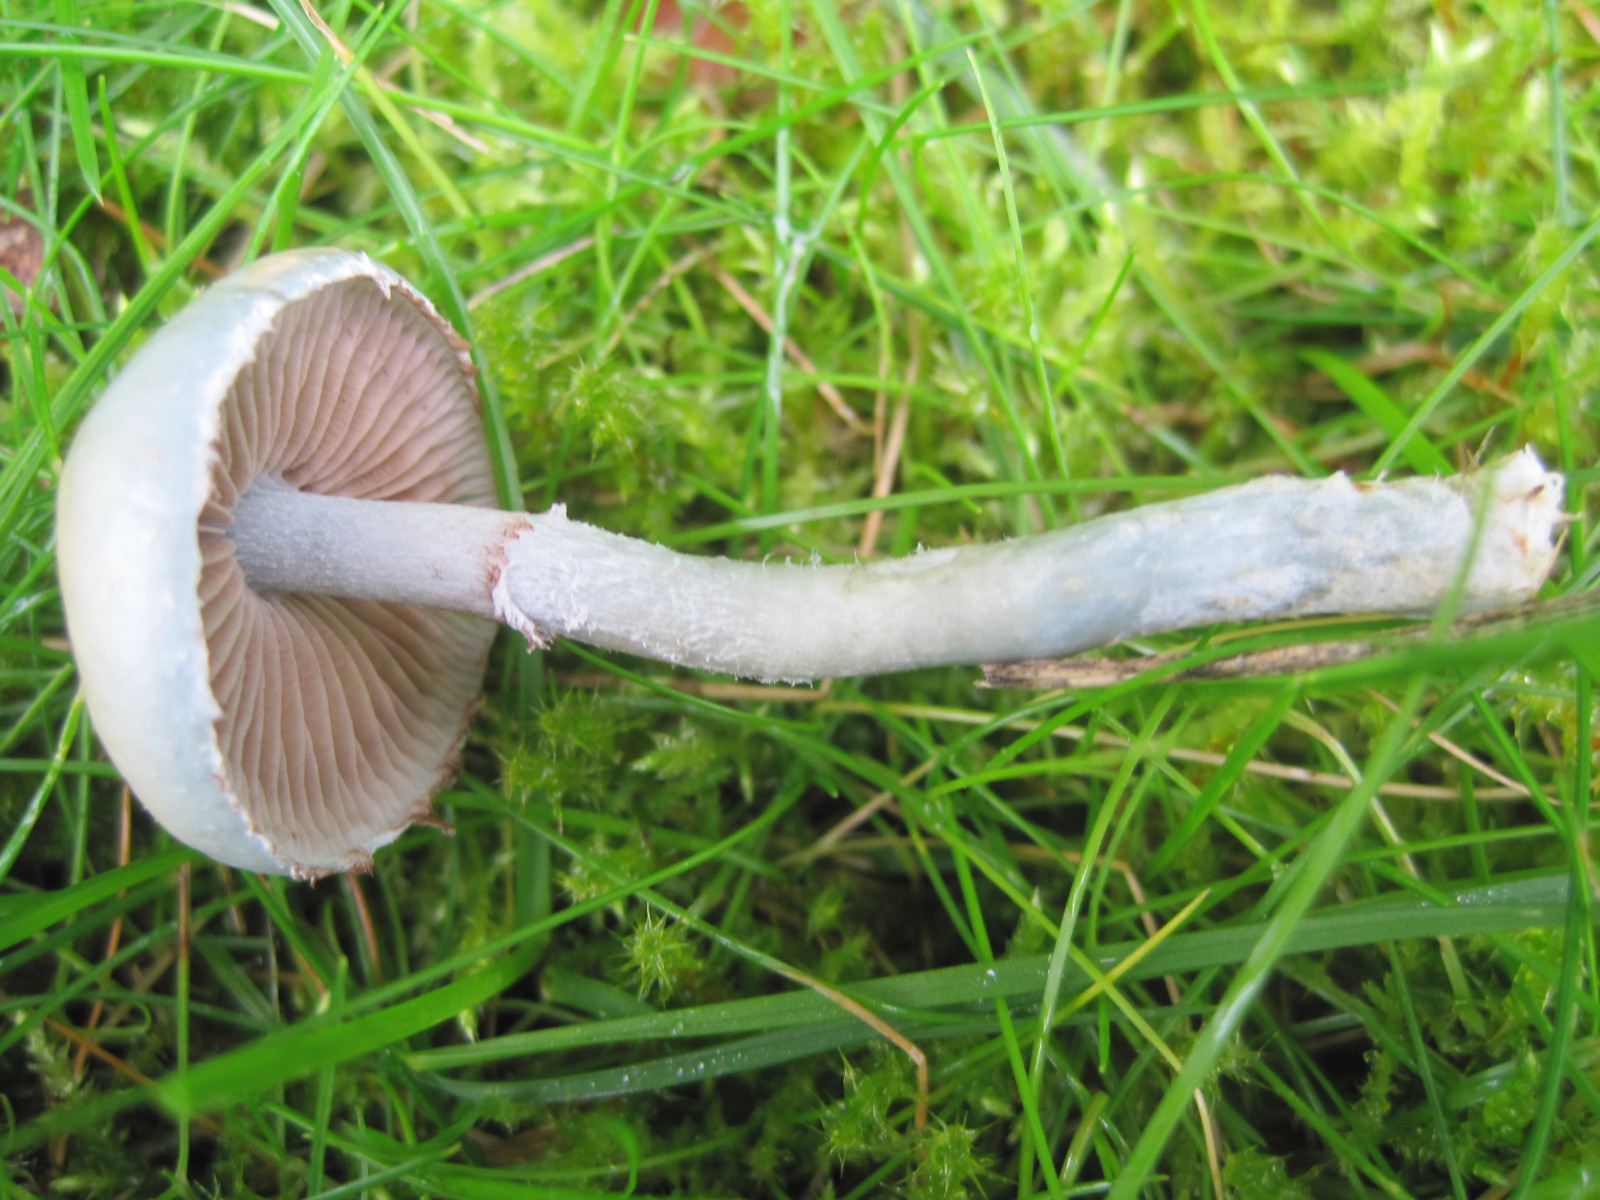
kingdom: Fungi
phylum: Basidiomycota
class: Agaricomycetes
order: Agaricales
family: Strophariaceae
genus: Stropharia
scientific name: Stropharia pseudocyanea
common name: blegblå bredblad
